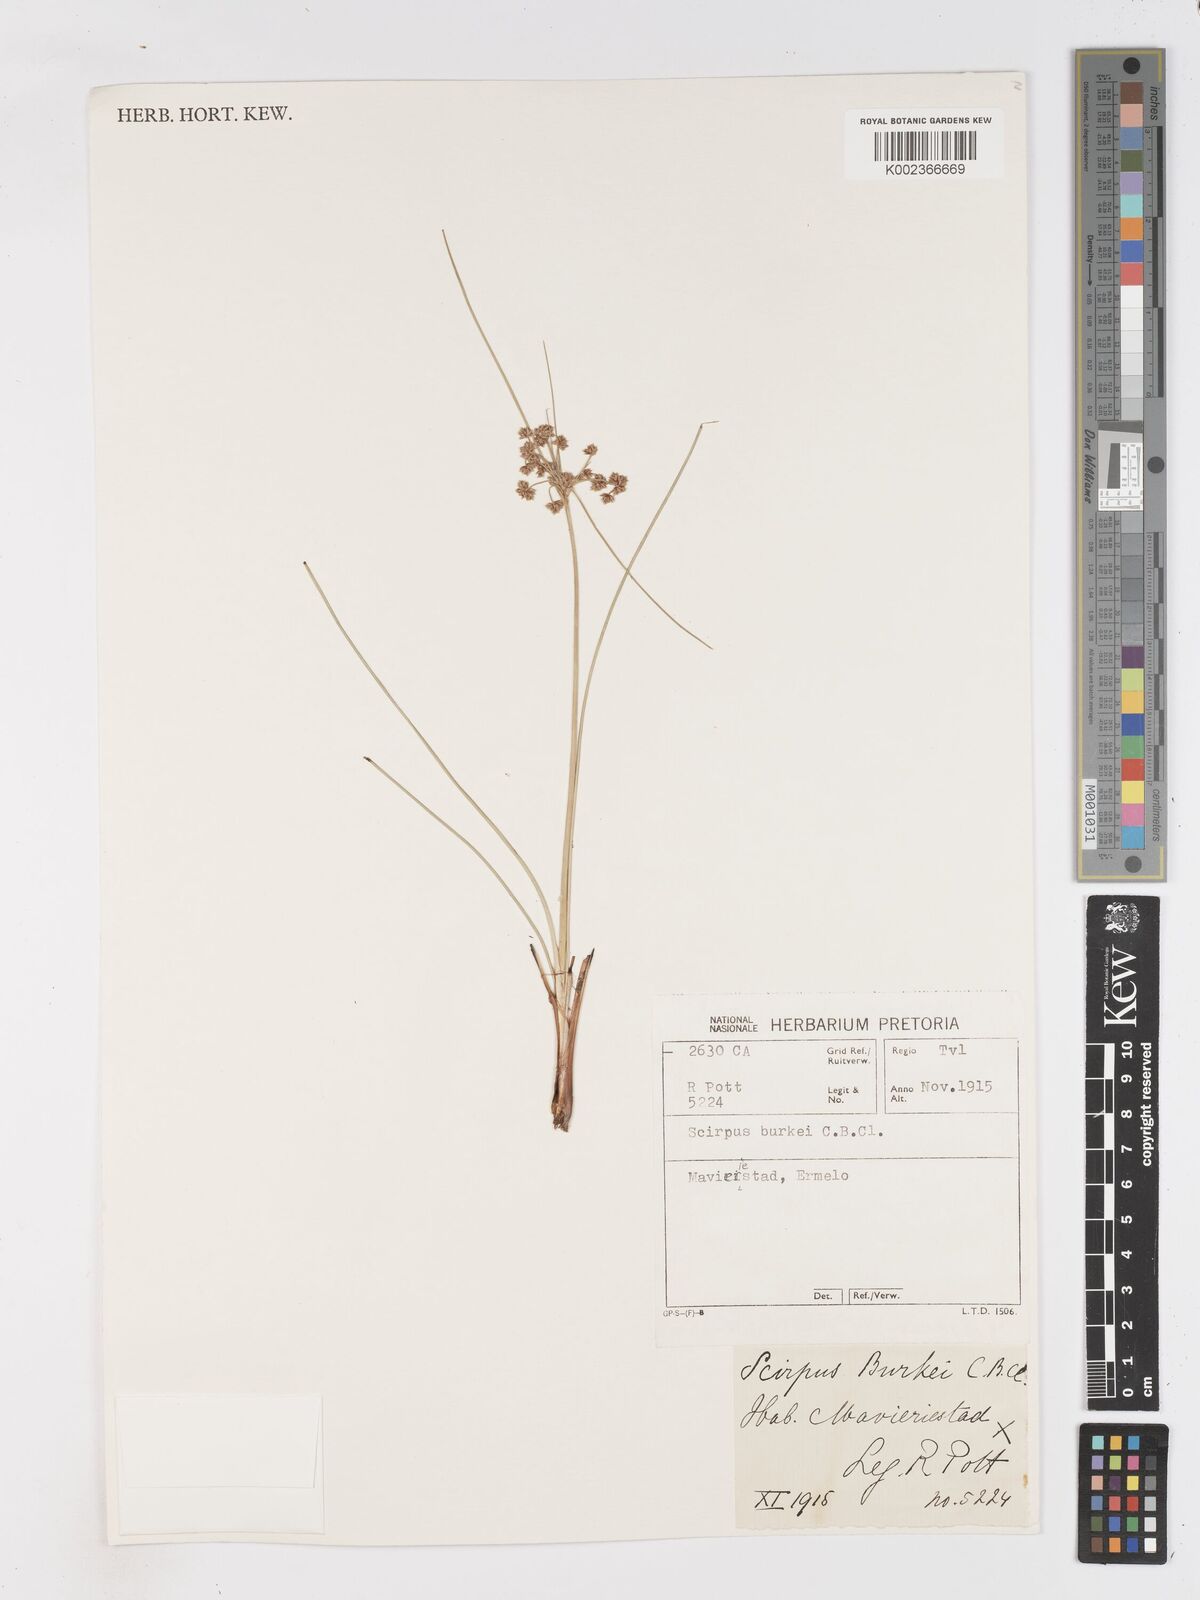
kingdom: Plantae
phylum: Tracheophyta
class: Liliopsida
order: Poales
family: Cyperaceae
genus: Scirpoides
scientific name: Scirpoides burkei
